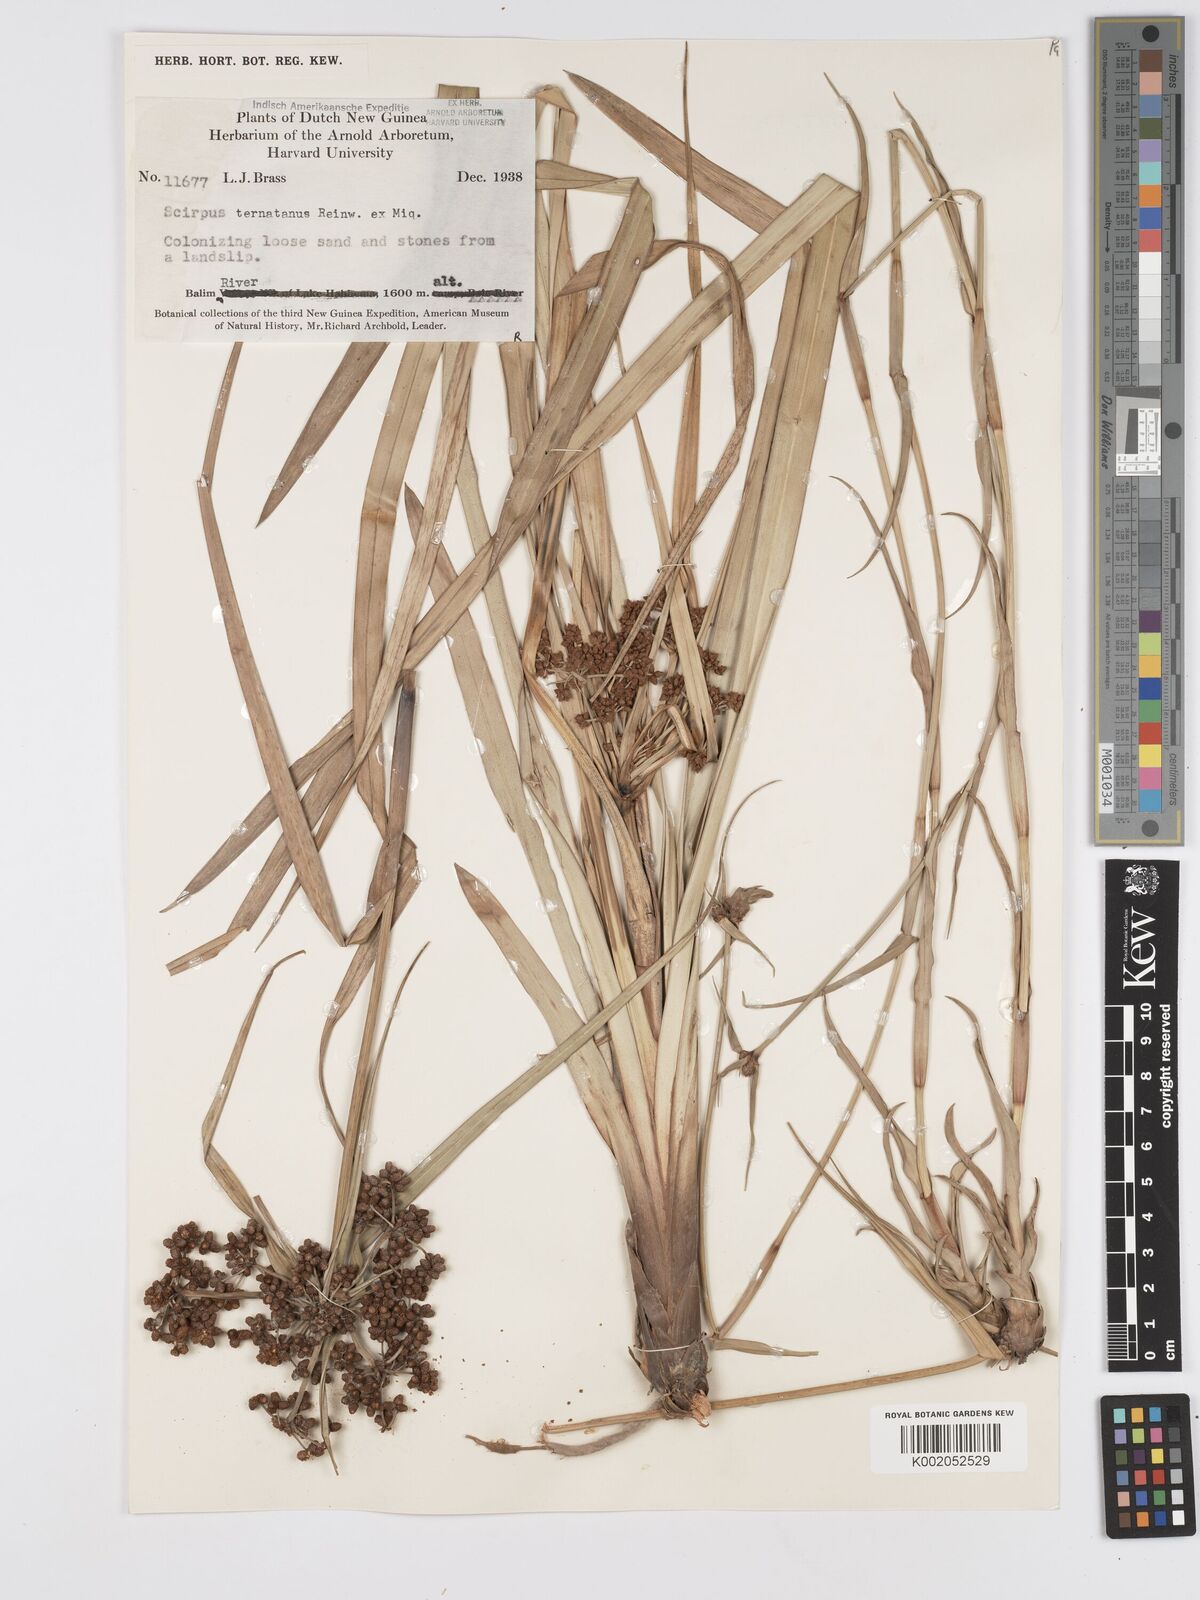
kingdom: Plantae
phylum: Tracheophyta
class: Liliopsida
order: Poales
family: Cyperaceae
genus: Scirpus
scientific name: Scirpus ternatanus
